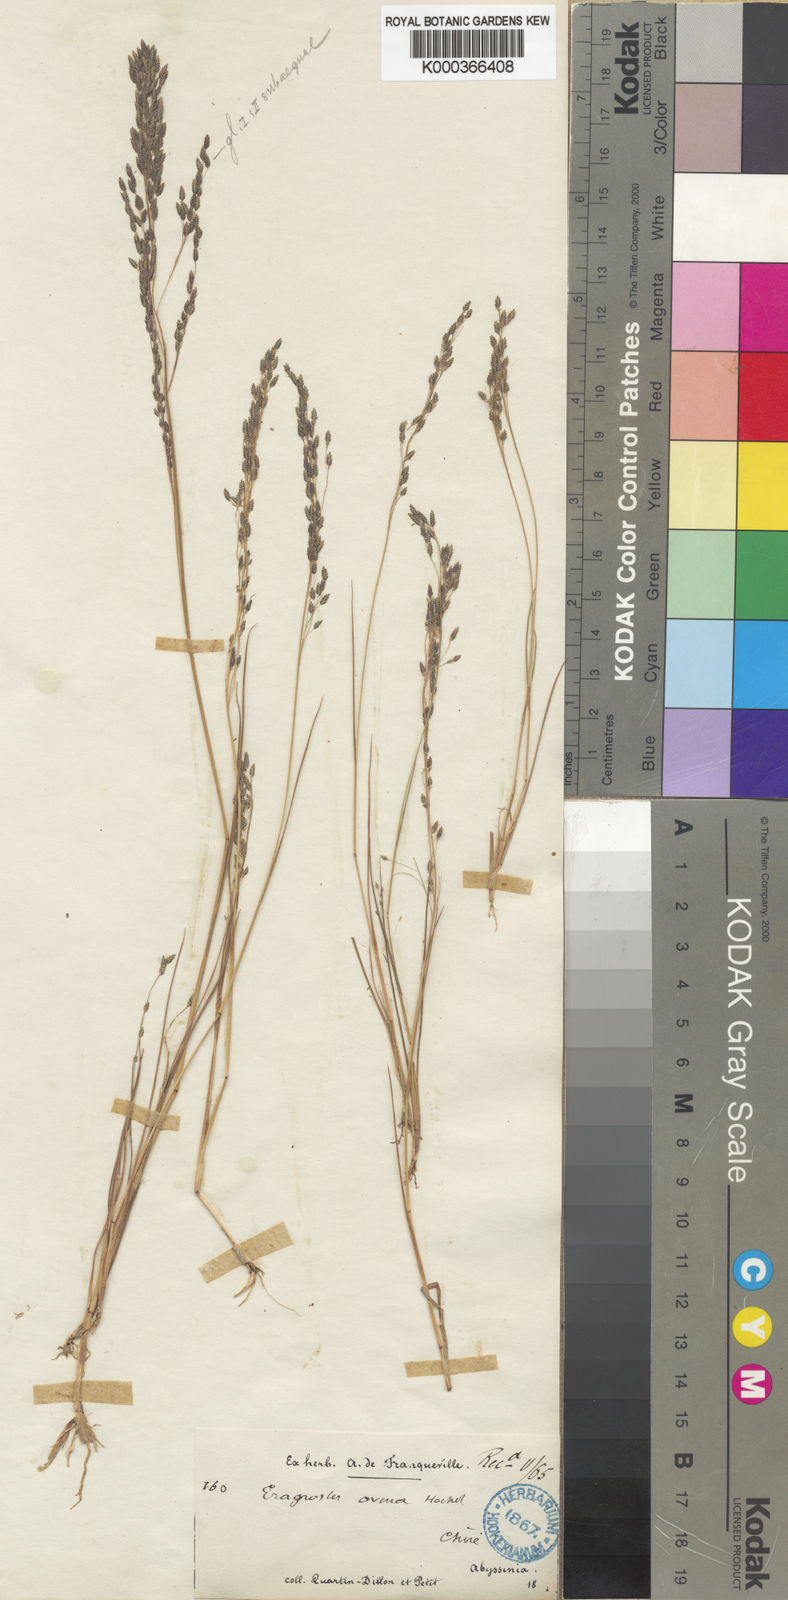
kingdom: Plantae
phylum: Tracheophyta
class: Liliopsida
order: Poales
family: Poaceae
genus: Eragrostis
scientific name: Eragrostis gangetica
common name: Slimflower lovegrass
